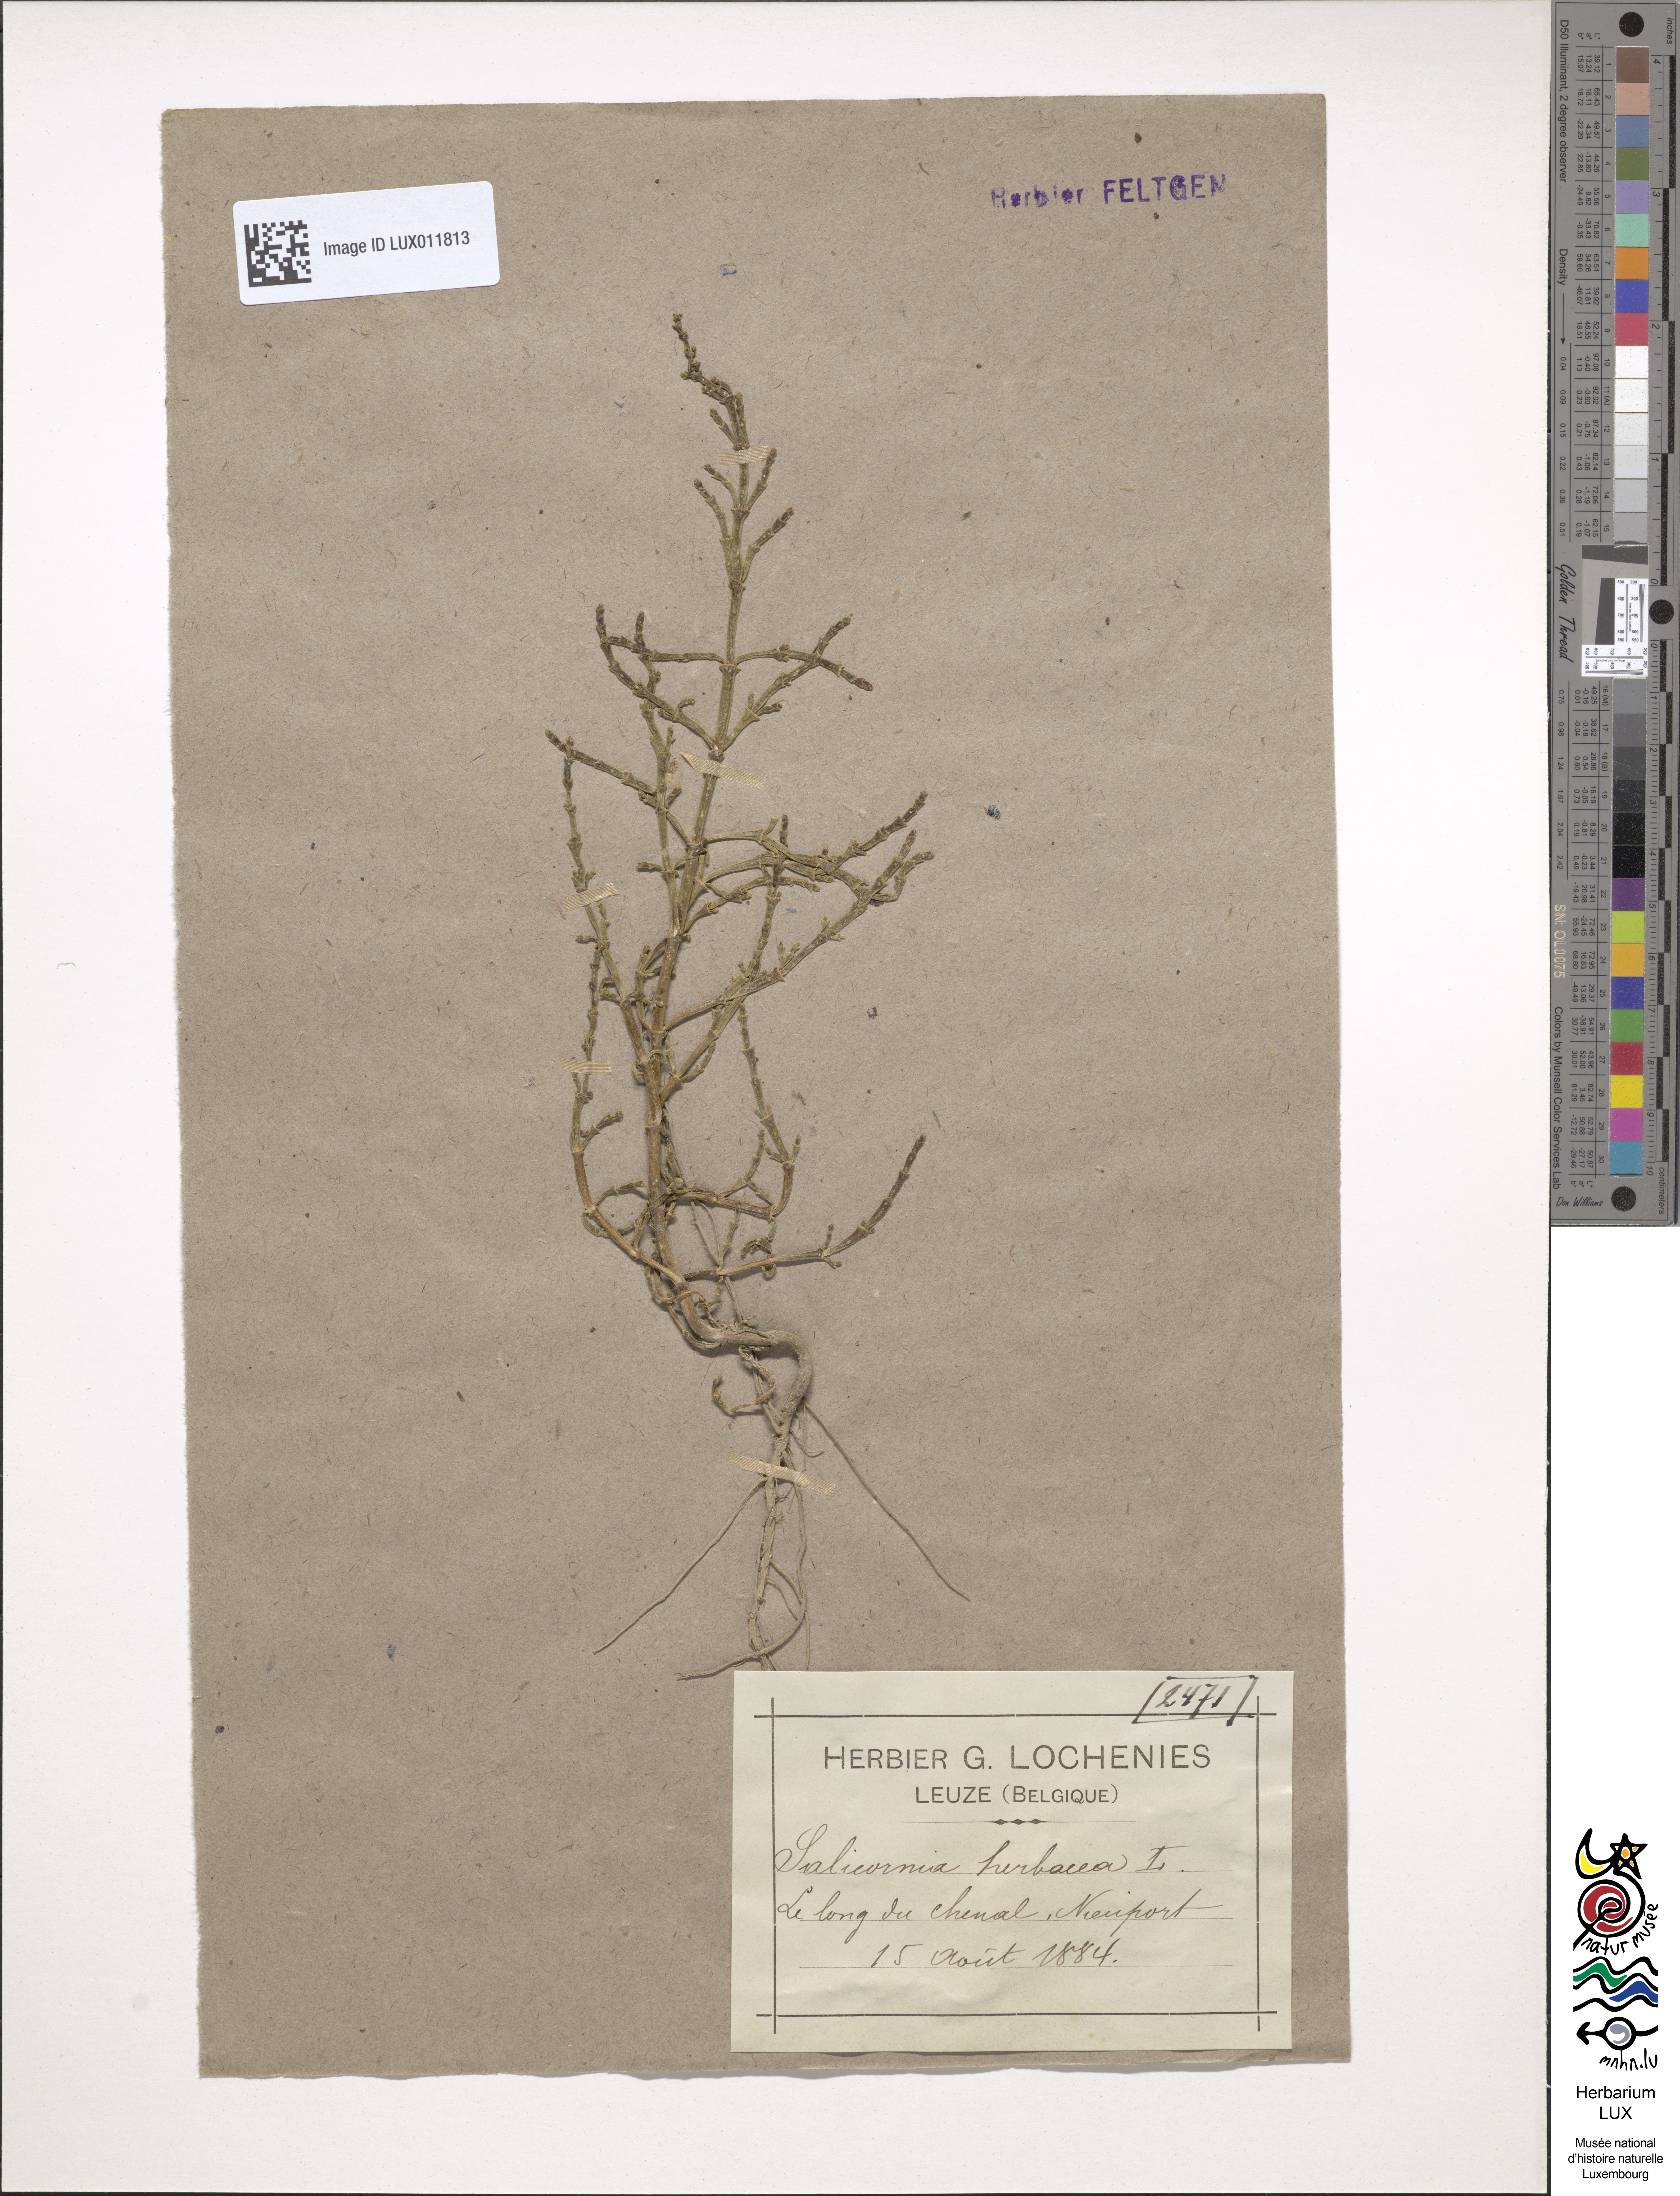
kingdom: Plantae
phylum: Tracheophyta
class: Magnoliopsida
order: Caryophyllales
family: Amaranthaceae
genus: Salicornia
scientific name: Salicornia europaea
